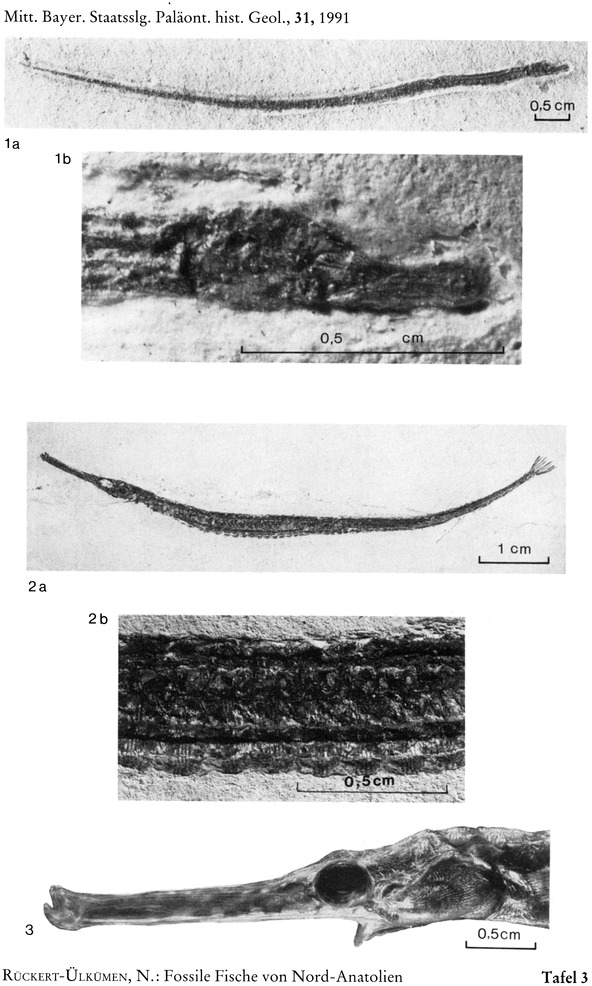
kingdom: Animalia
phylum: Chordata
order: Syngnathiformes
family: Syngnathidae
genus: Syngnathus
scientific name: Syngnathus affinis
